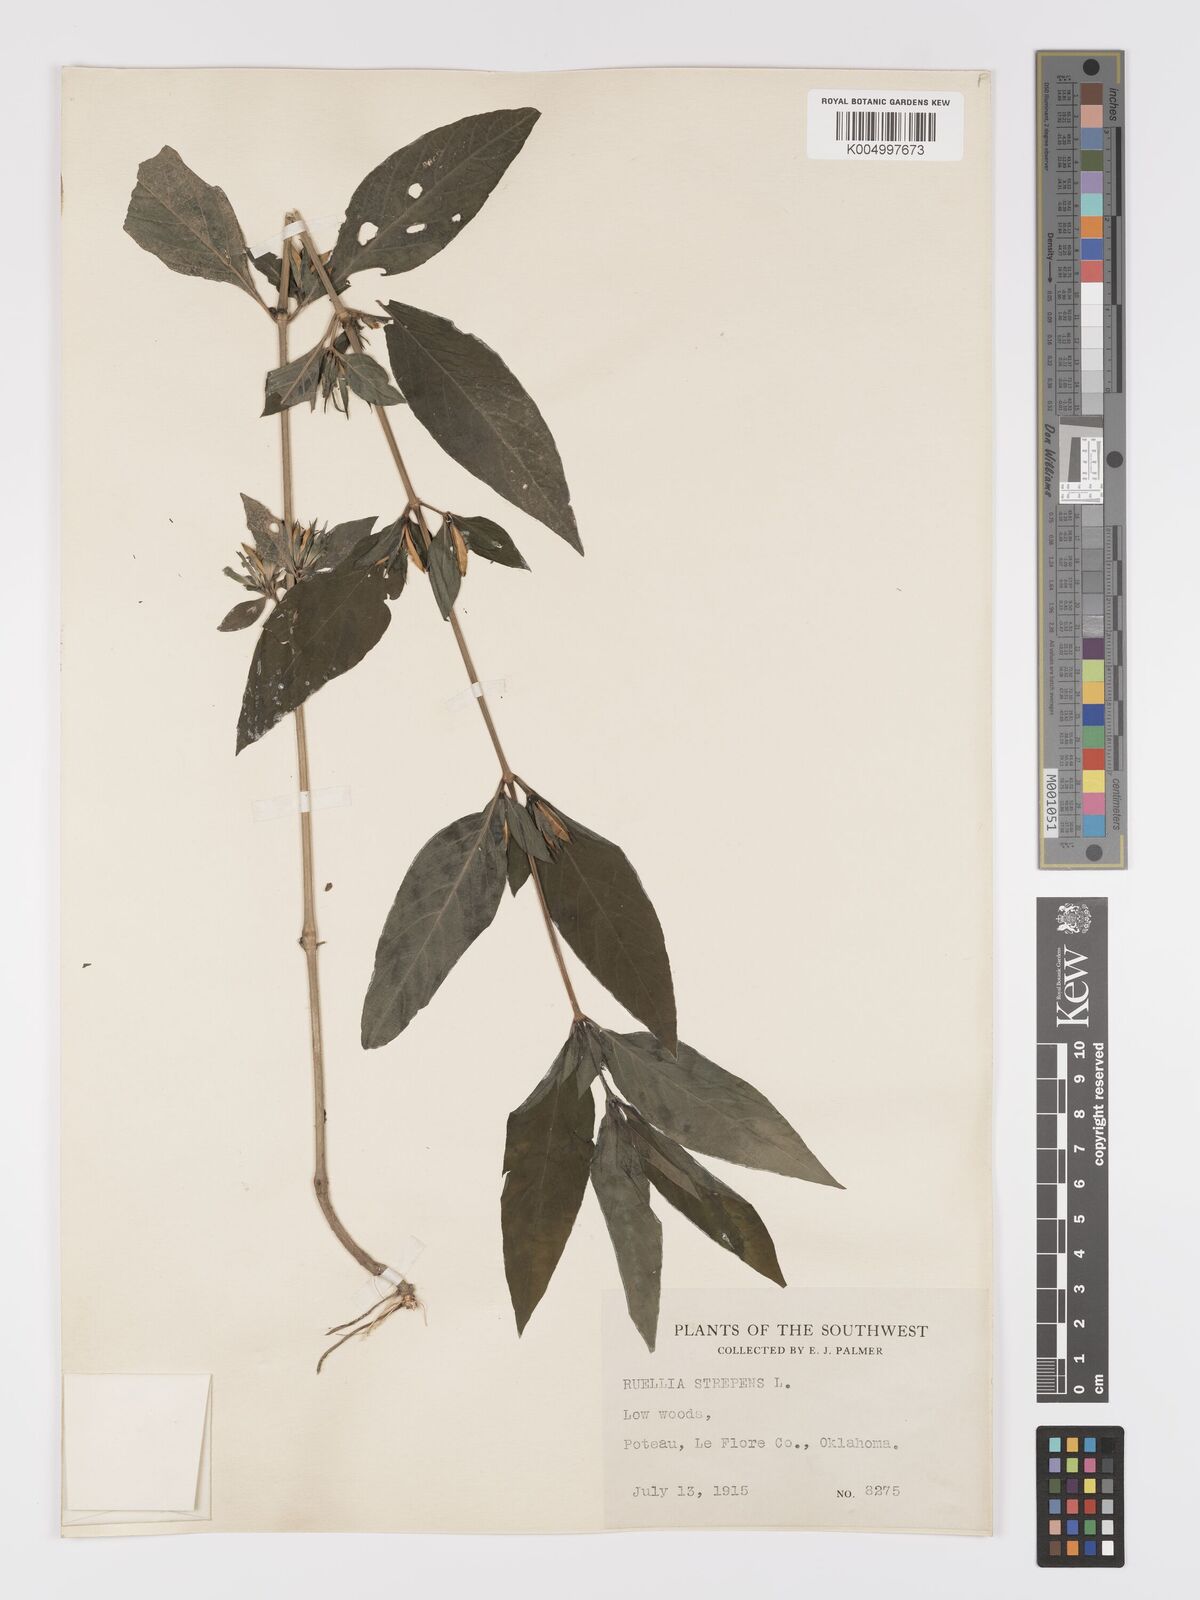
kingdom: Plantae
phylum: Tracheophyta
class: Magnoliopsida
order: Lamiales
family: Acanthaceae
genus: Ruellia
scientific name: Ruellia strepens
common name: Limestone wild petunia
